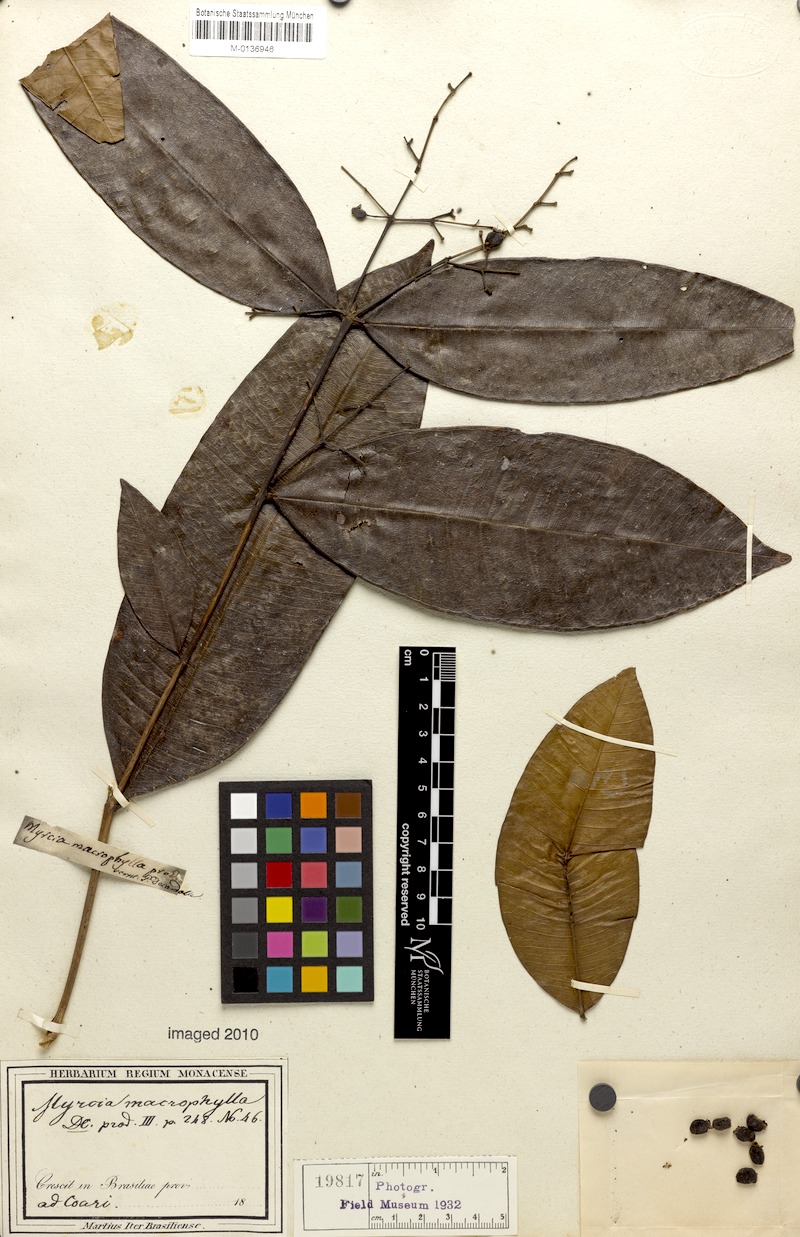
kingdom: Plantae
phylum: Tracheophyta
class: Magnoliopsida
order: Myrtales
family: Myrtaceae
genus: Myrcia
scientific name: Myrcia splendens
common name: Surinam cherry
